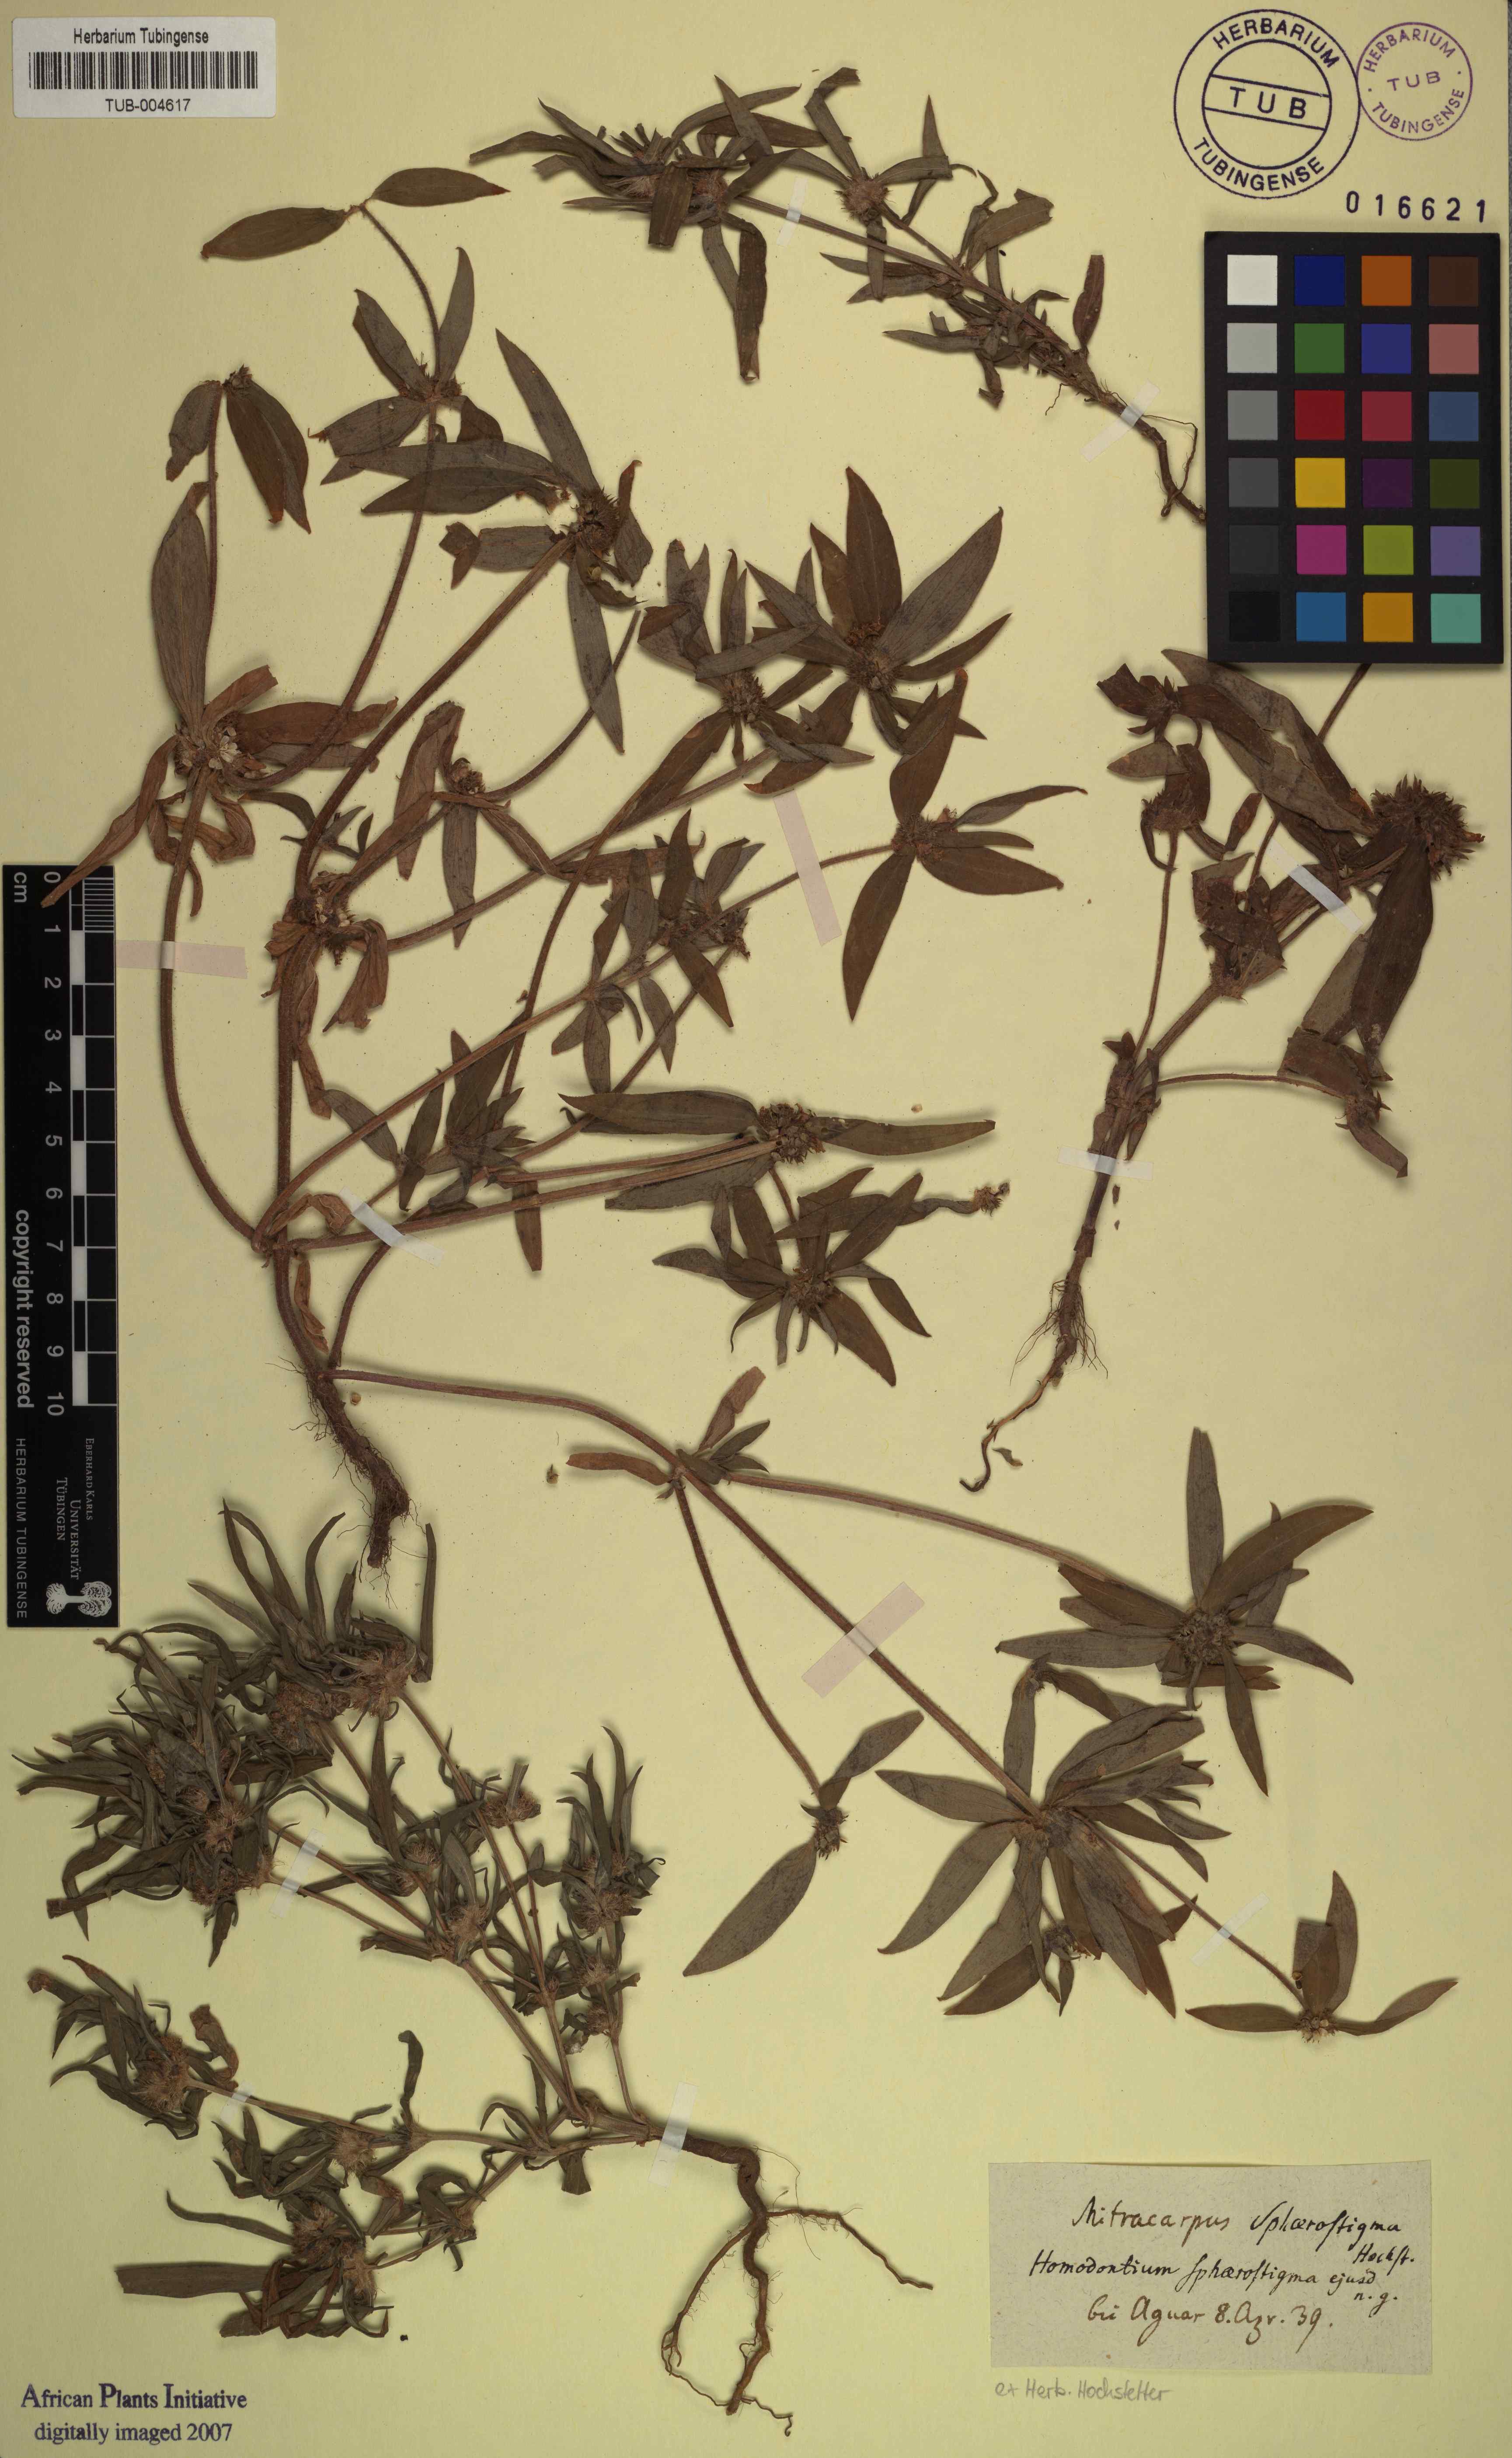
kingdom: Plantae
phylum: Tracheophyta
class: Magnoliopsida
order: Gentianales
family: Rubiaceae
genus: Spermacoce
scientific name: Spermacoce sphaerostigma
